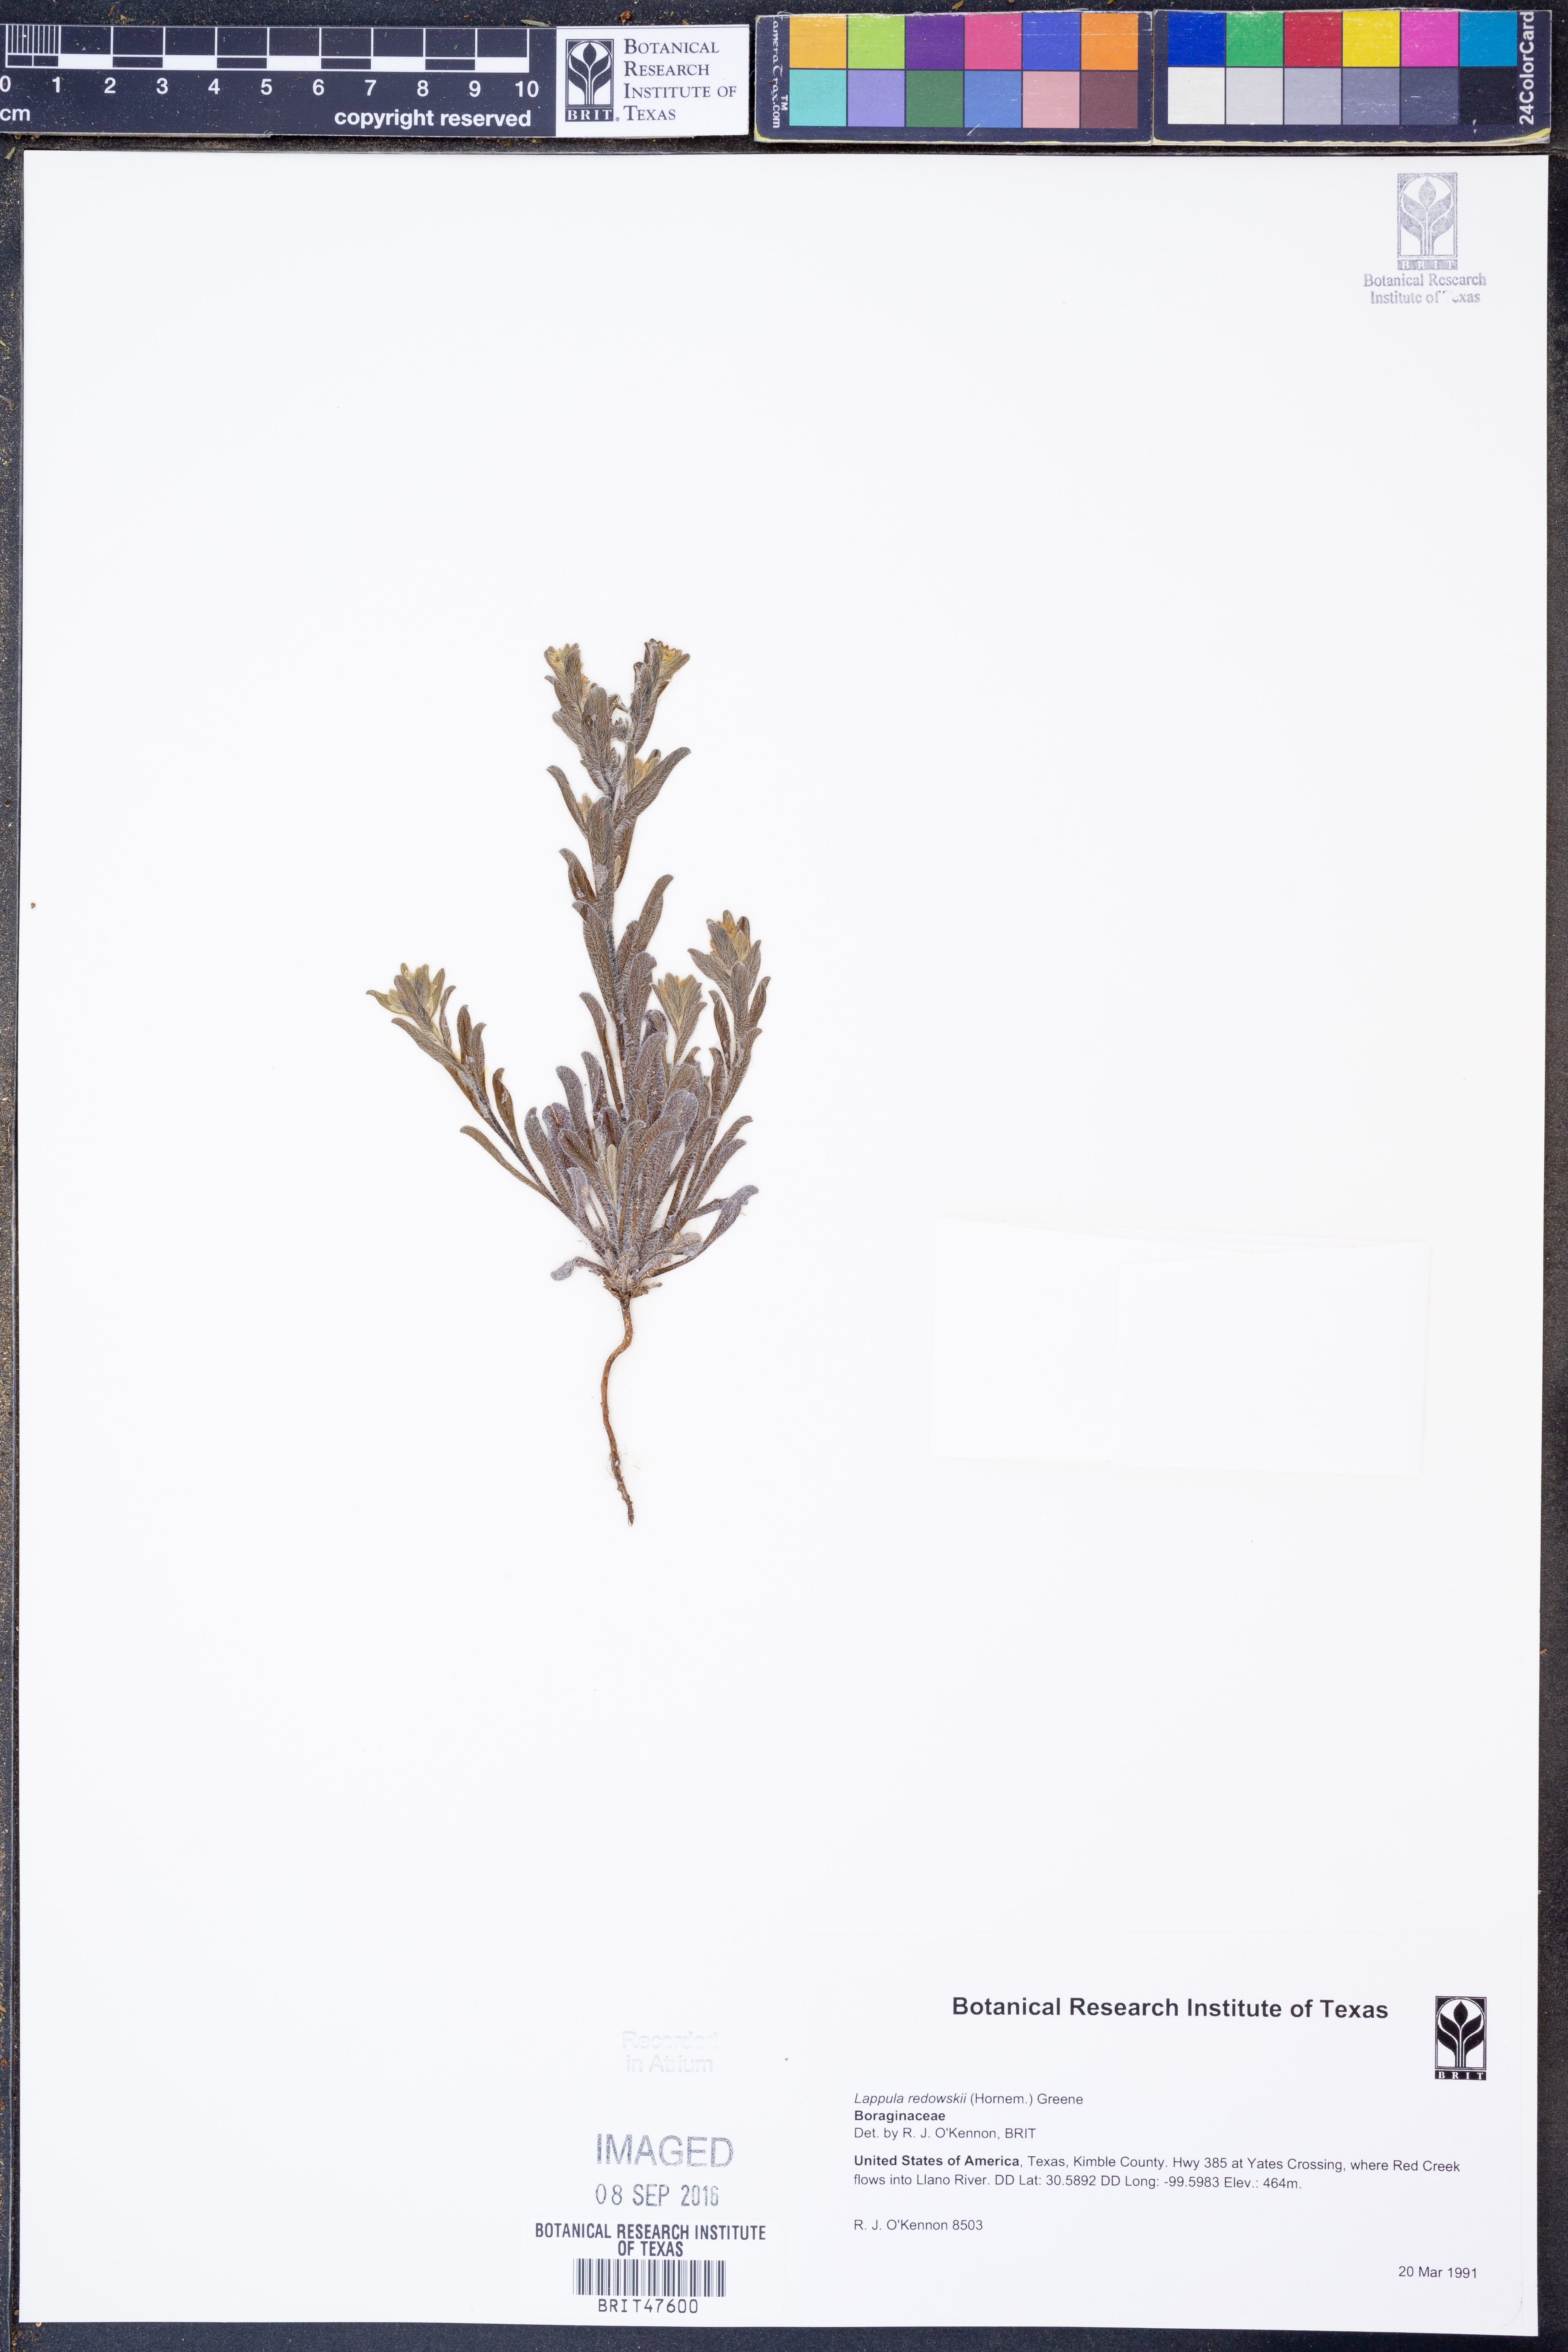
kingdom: Plantae
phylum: Tracheophyta
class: Magnoliopsida
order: Boraginales
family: Boraginaceae
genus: Lappula
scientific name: Lappula redowskii
